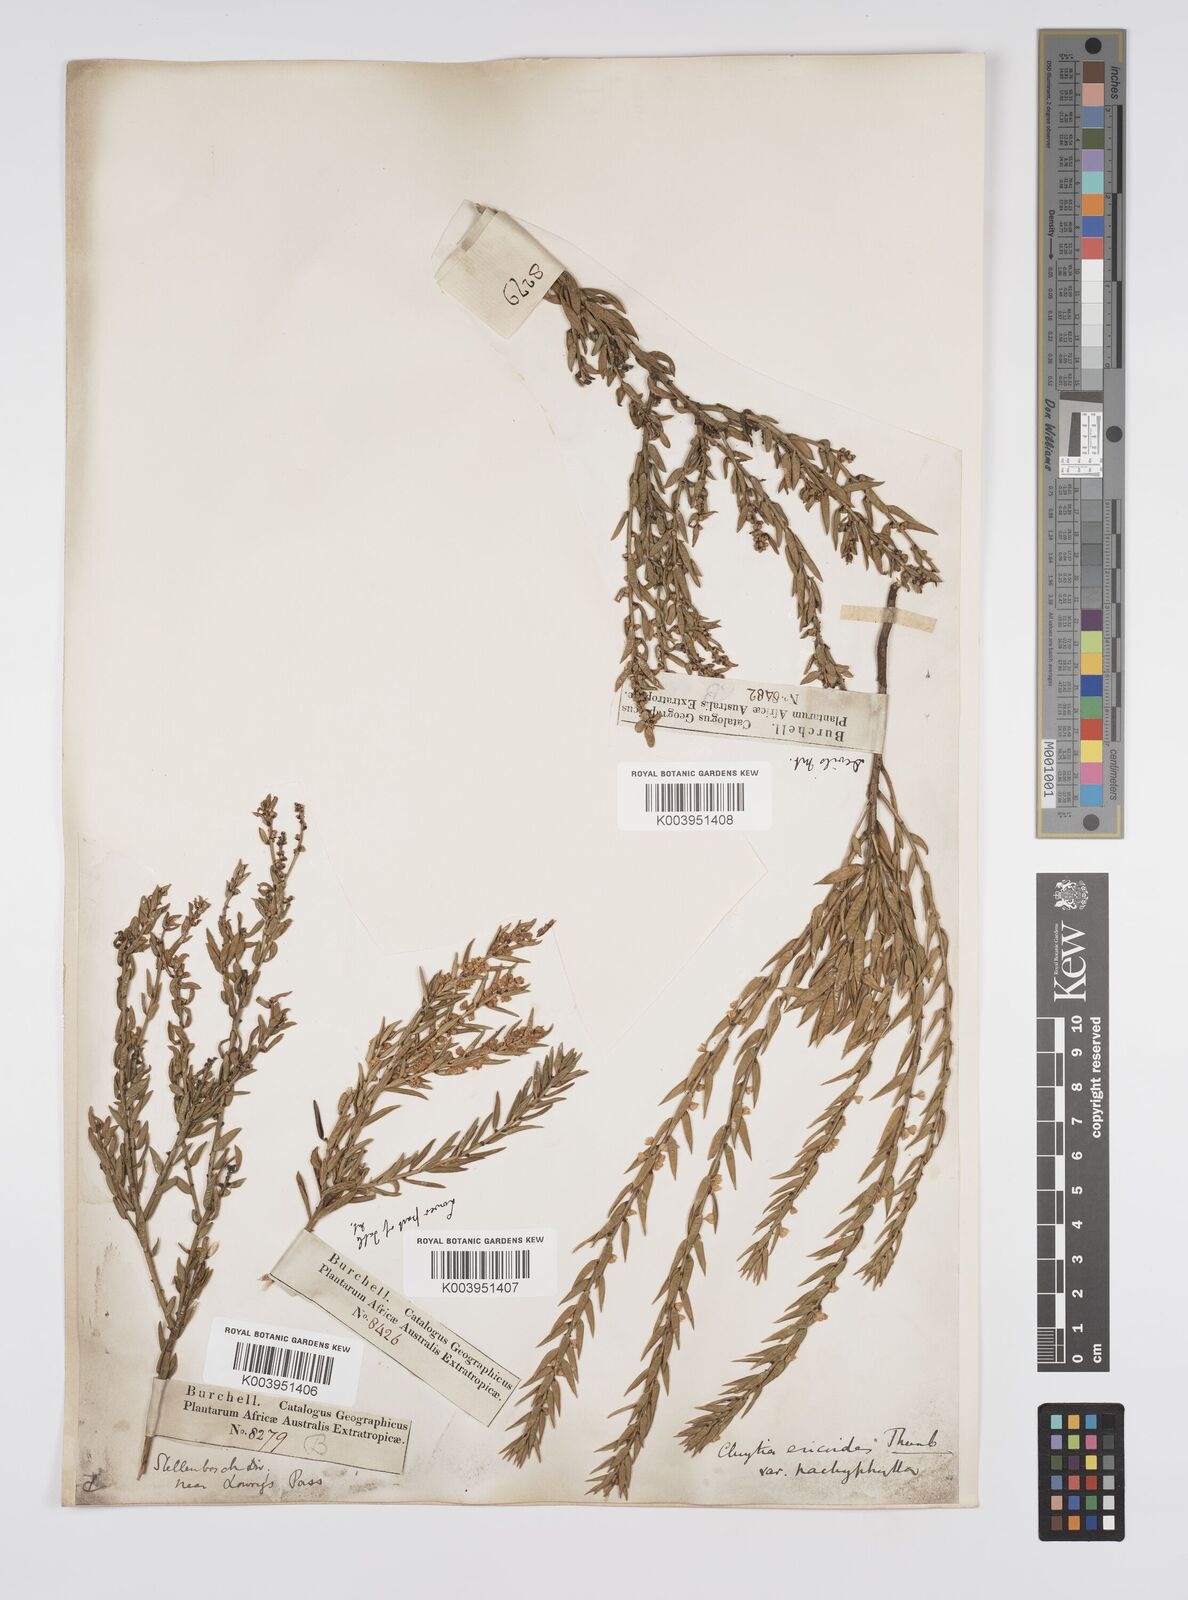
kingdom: Plantae
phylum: Tracheophyta
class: Magnoliopsida
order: Malpighiales
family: Peraceae
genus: Clutia
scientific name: Clutia
